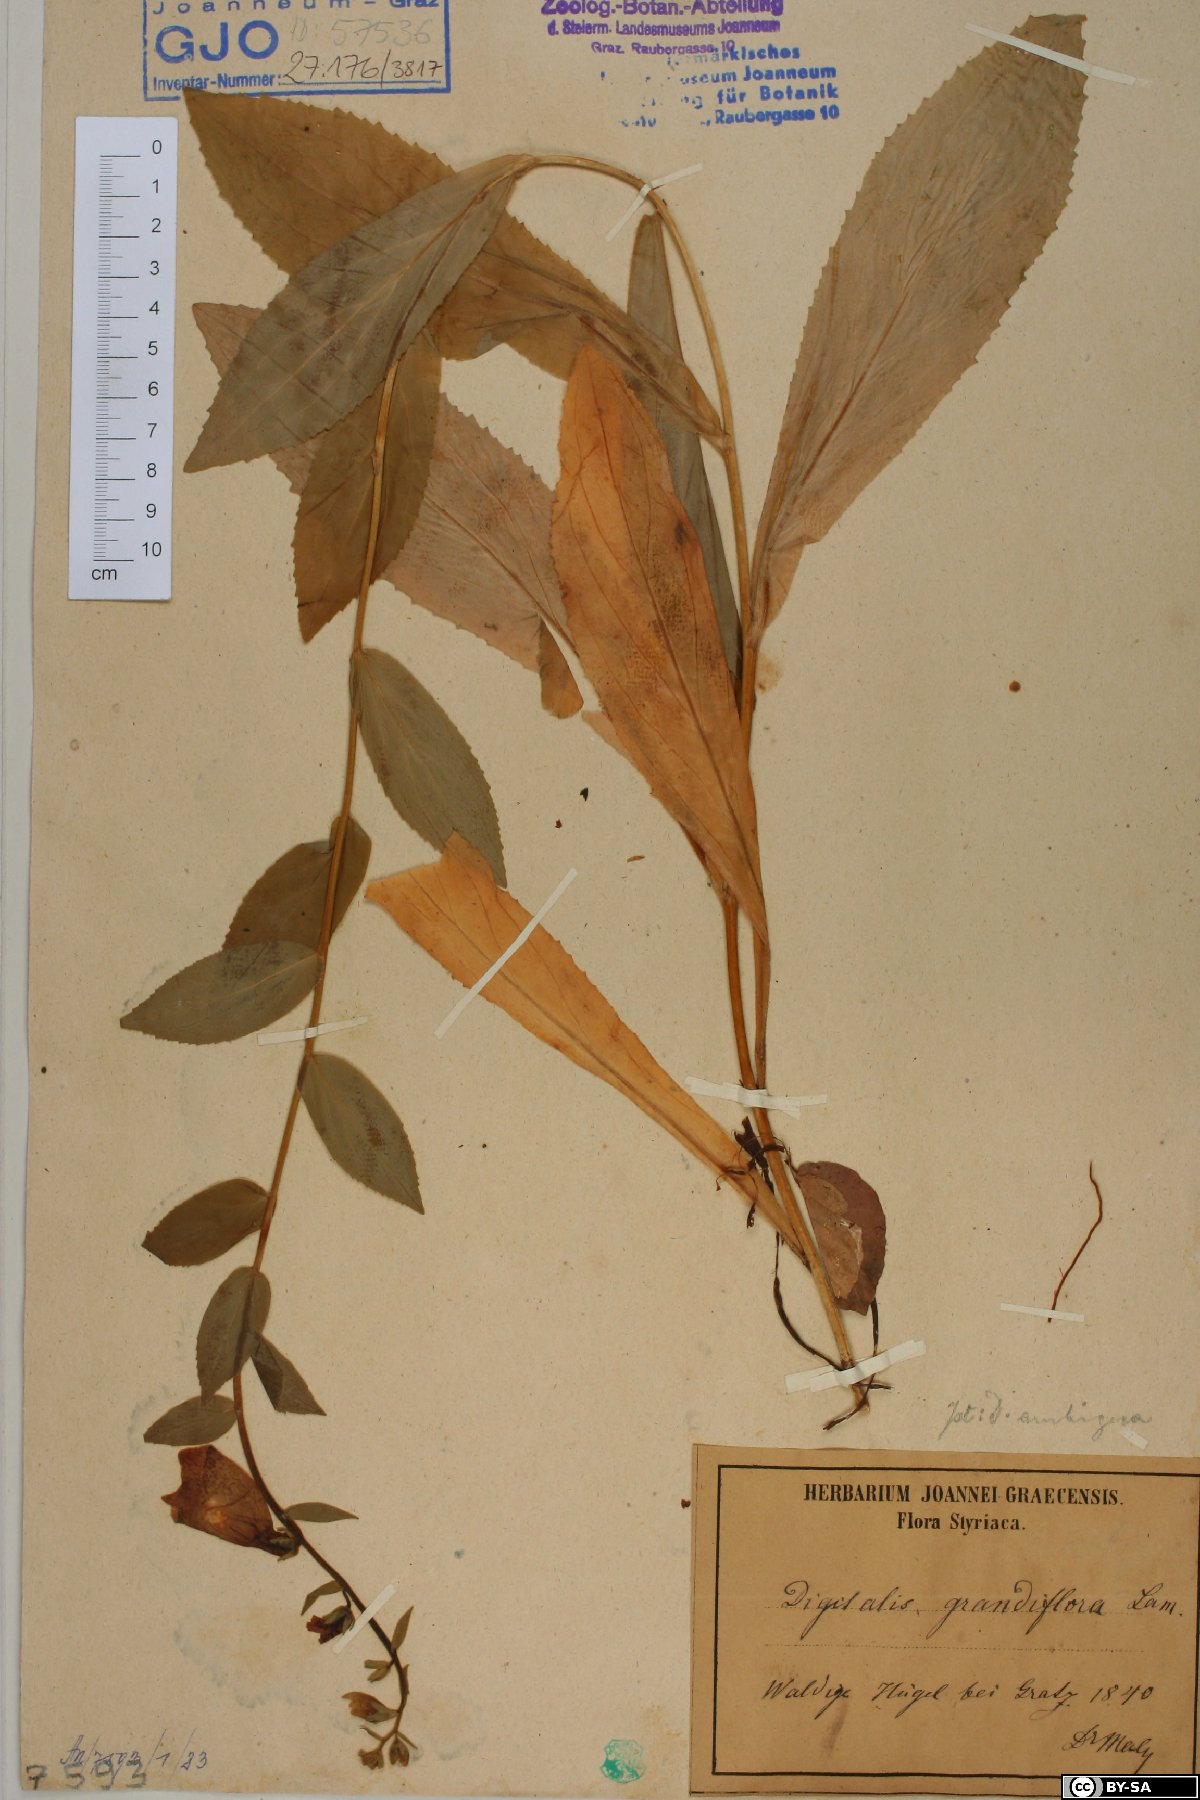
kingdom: Plantae
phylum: Tracheophyta
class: Magnoliopsida
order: Lamiales
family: Plantaginaceae
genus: Digitalis
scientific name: Digitalis grandiflora
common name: Yellow foxglove
